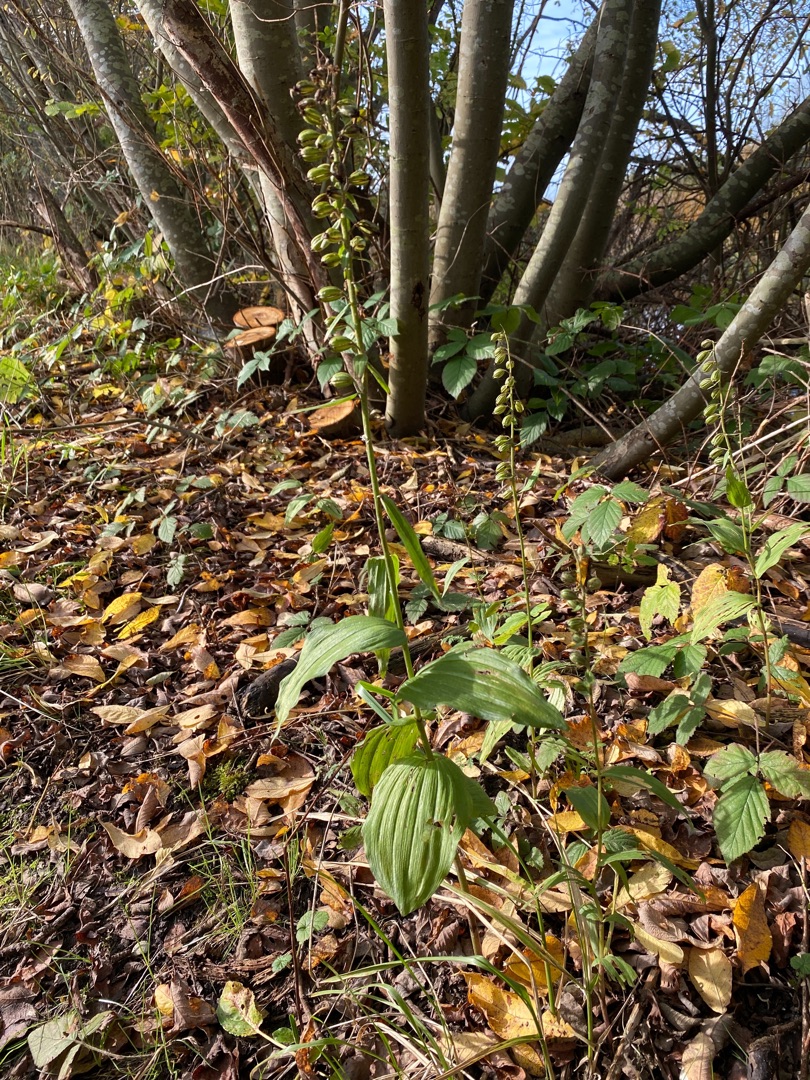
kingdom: Plantae
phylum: Tracheophyta
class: Liliopsida
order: Asparagales
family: Orchidaceae
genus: Epipactis
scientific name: Epipactis helleborine
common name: Skov-hullæbe
